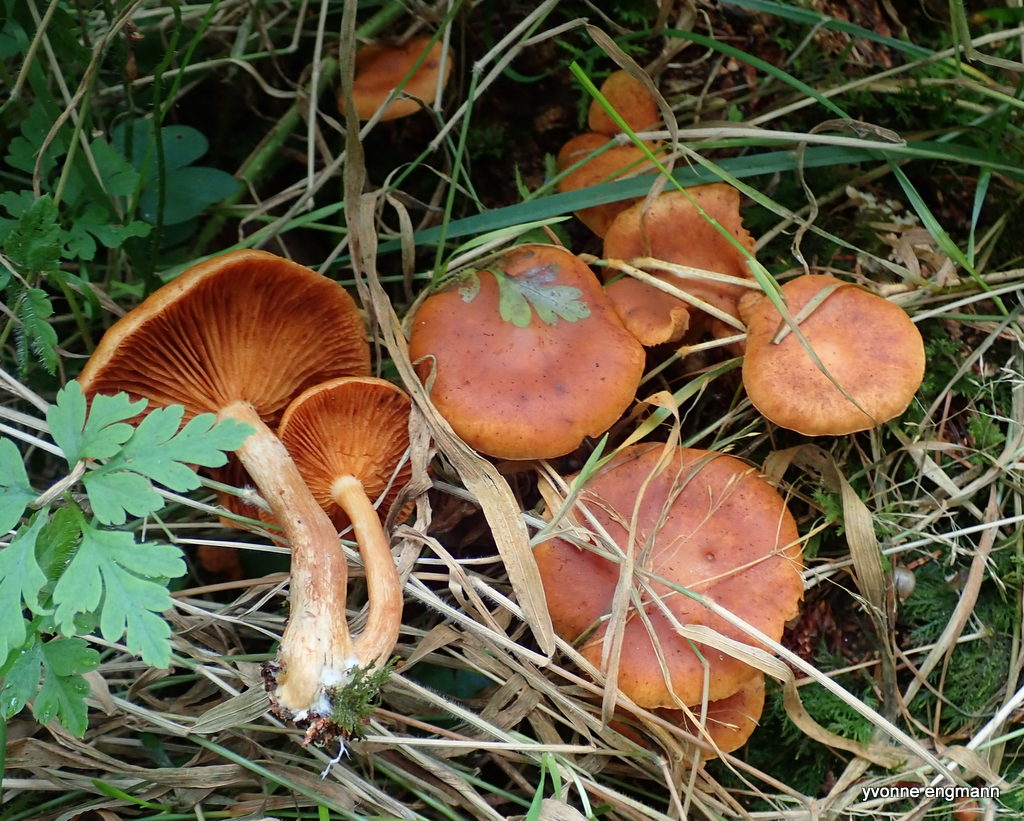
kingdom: Fungi
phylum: Basidiomycota
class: Agaricomycetes
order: Agaricales
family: Hymenogastraceae
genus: Gymnopilus
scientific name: Gymnopilus penetrans
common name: plettet flammehat
